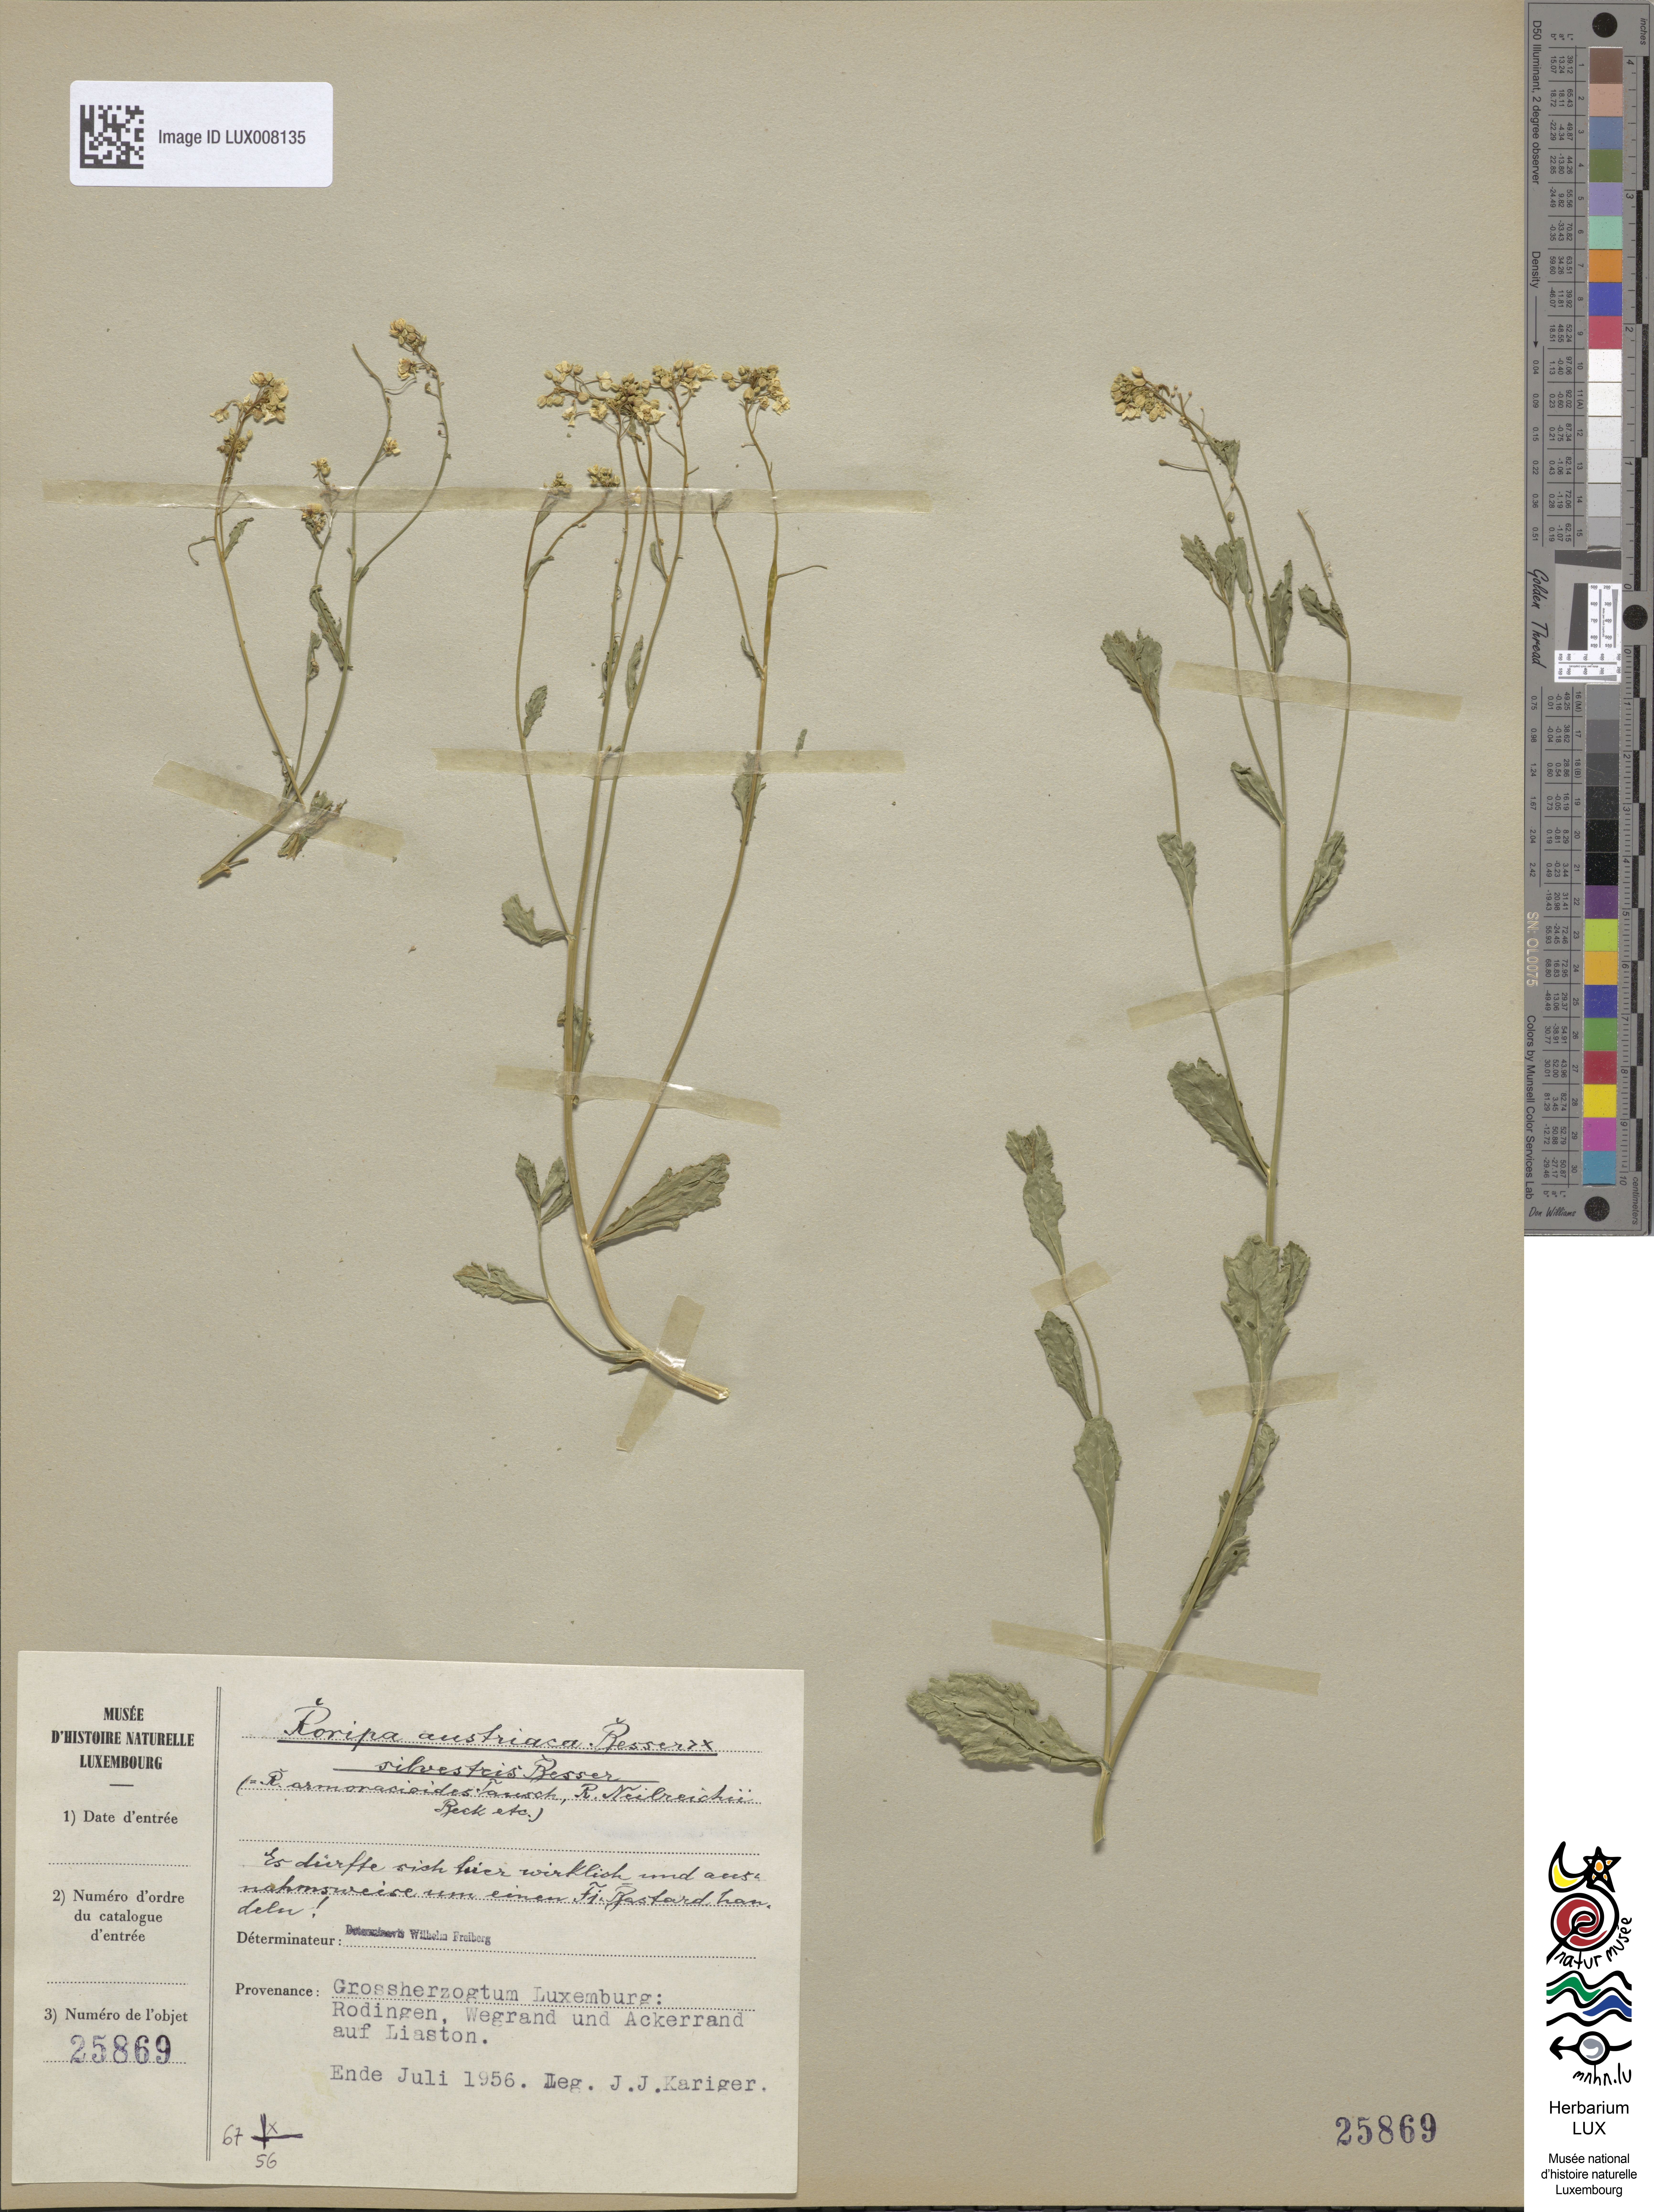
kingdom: Plantae
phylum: Tracheophyta
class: Magnoliopsida
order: Brassicales
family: Brassicaceae
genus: Rorippa
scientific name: Rorippa
